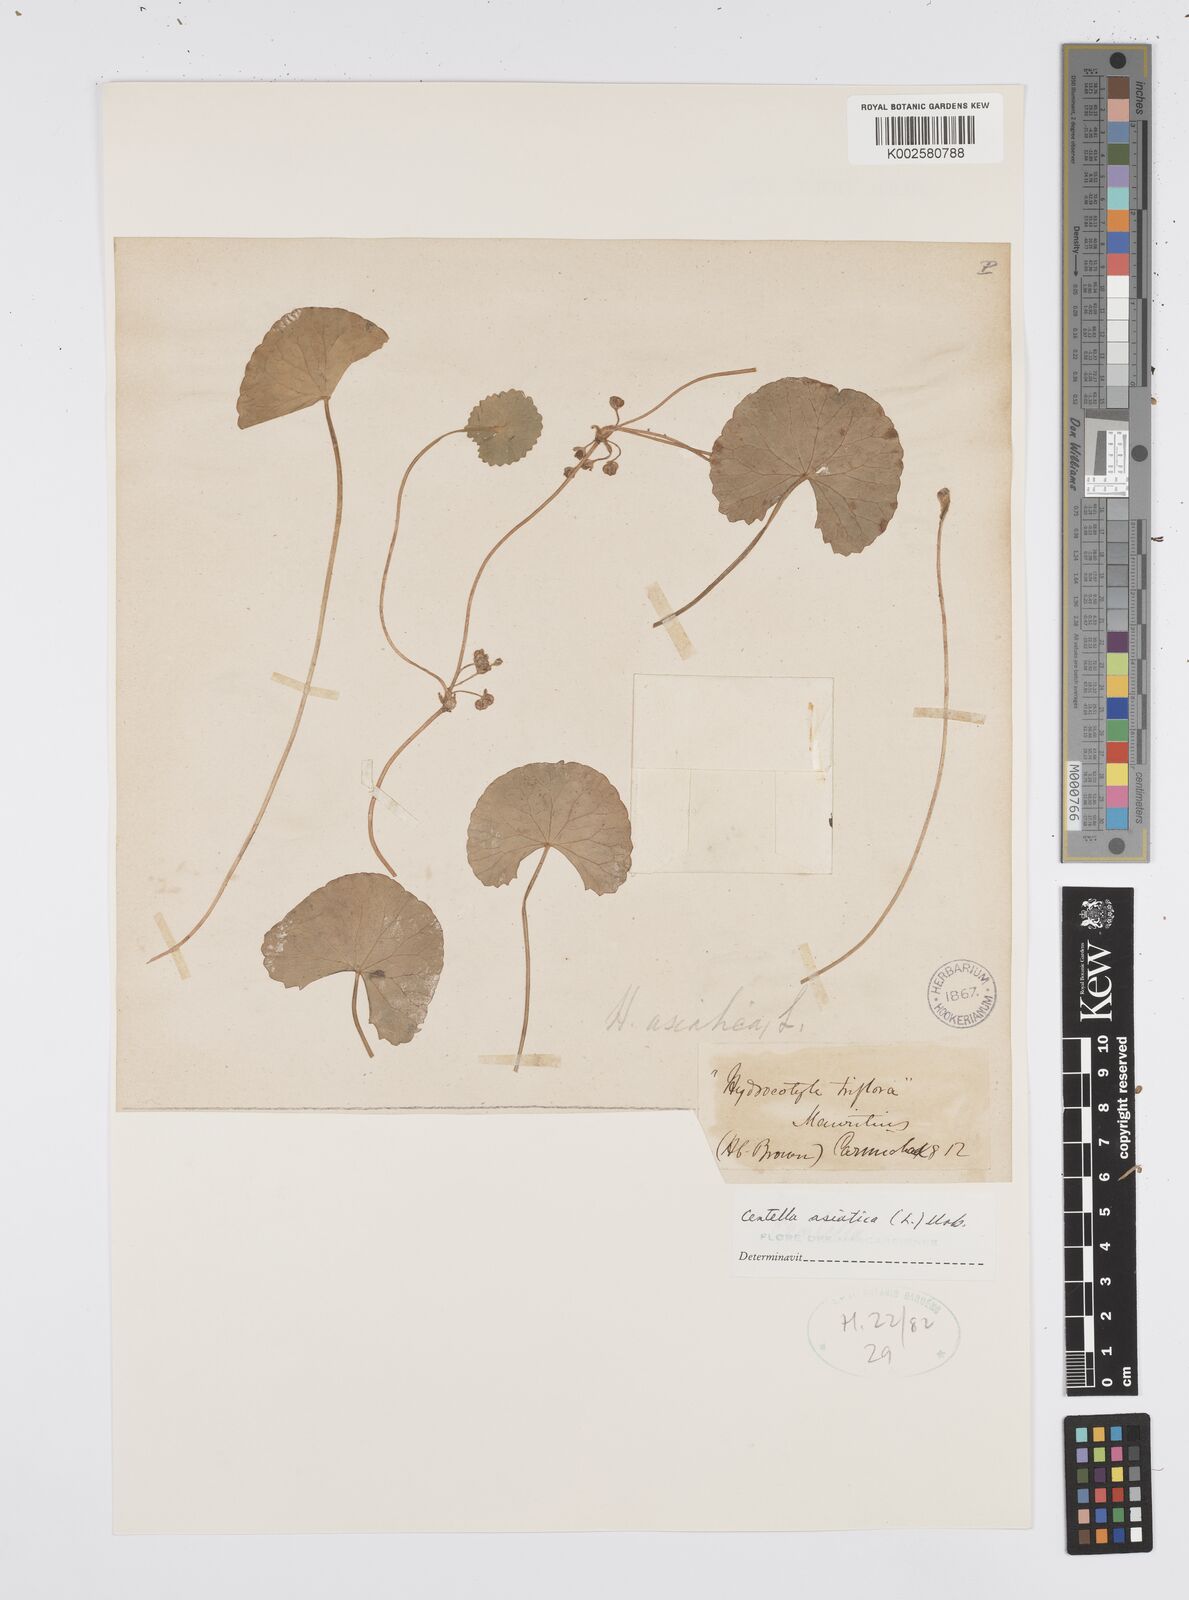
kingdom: Plantae
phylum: Tracheophyta
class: Magnoliopsida
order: Apiales
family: Apiaceae
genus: Centella
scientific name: Centella asiatica
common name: Spadeleaf
